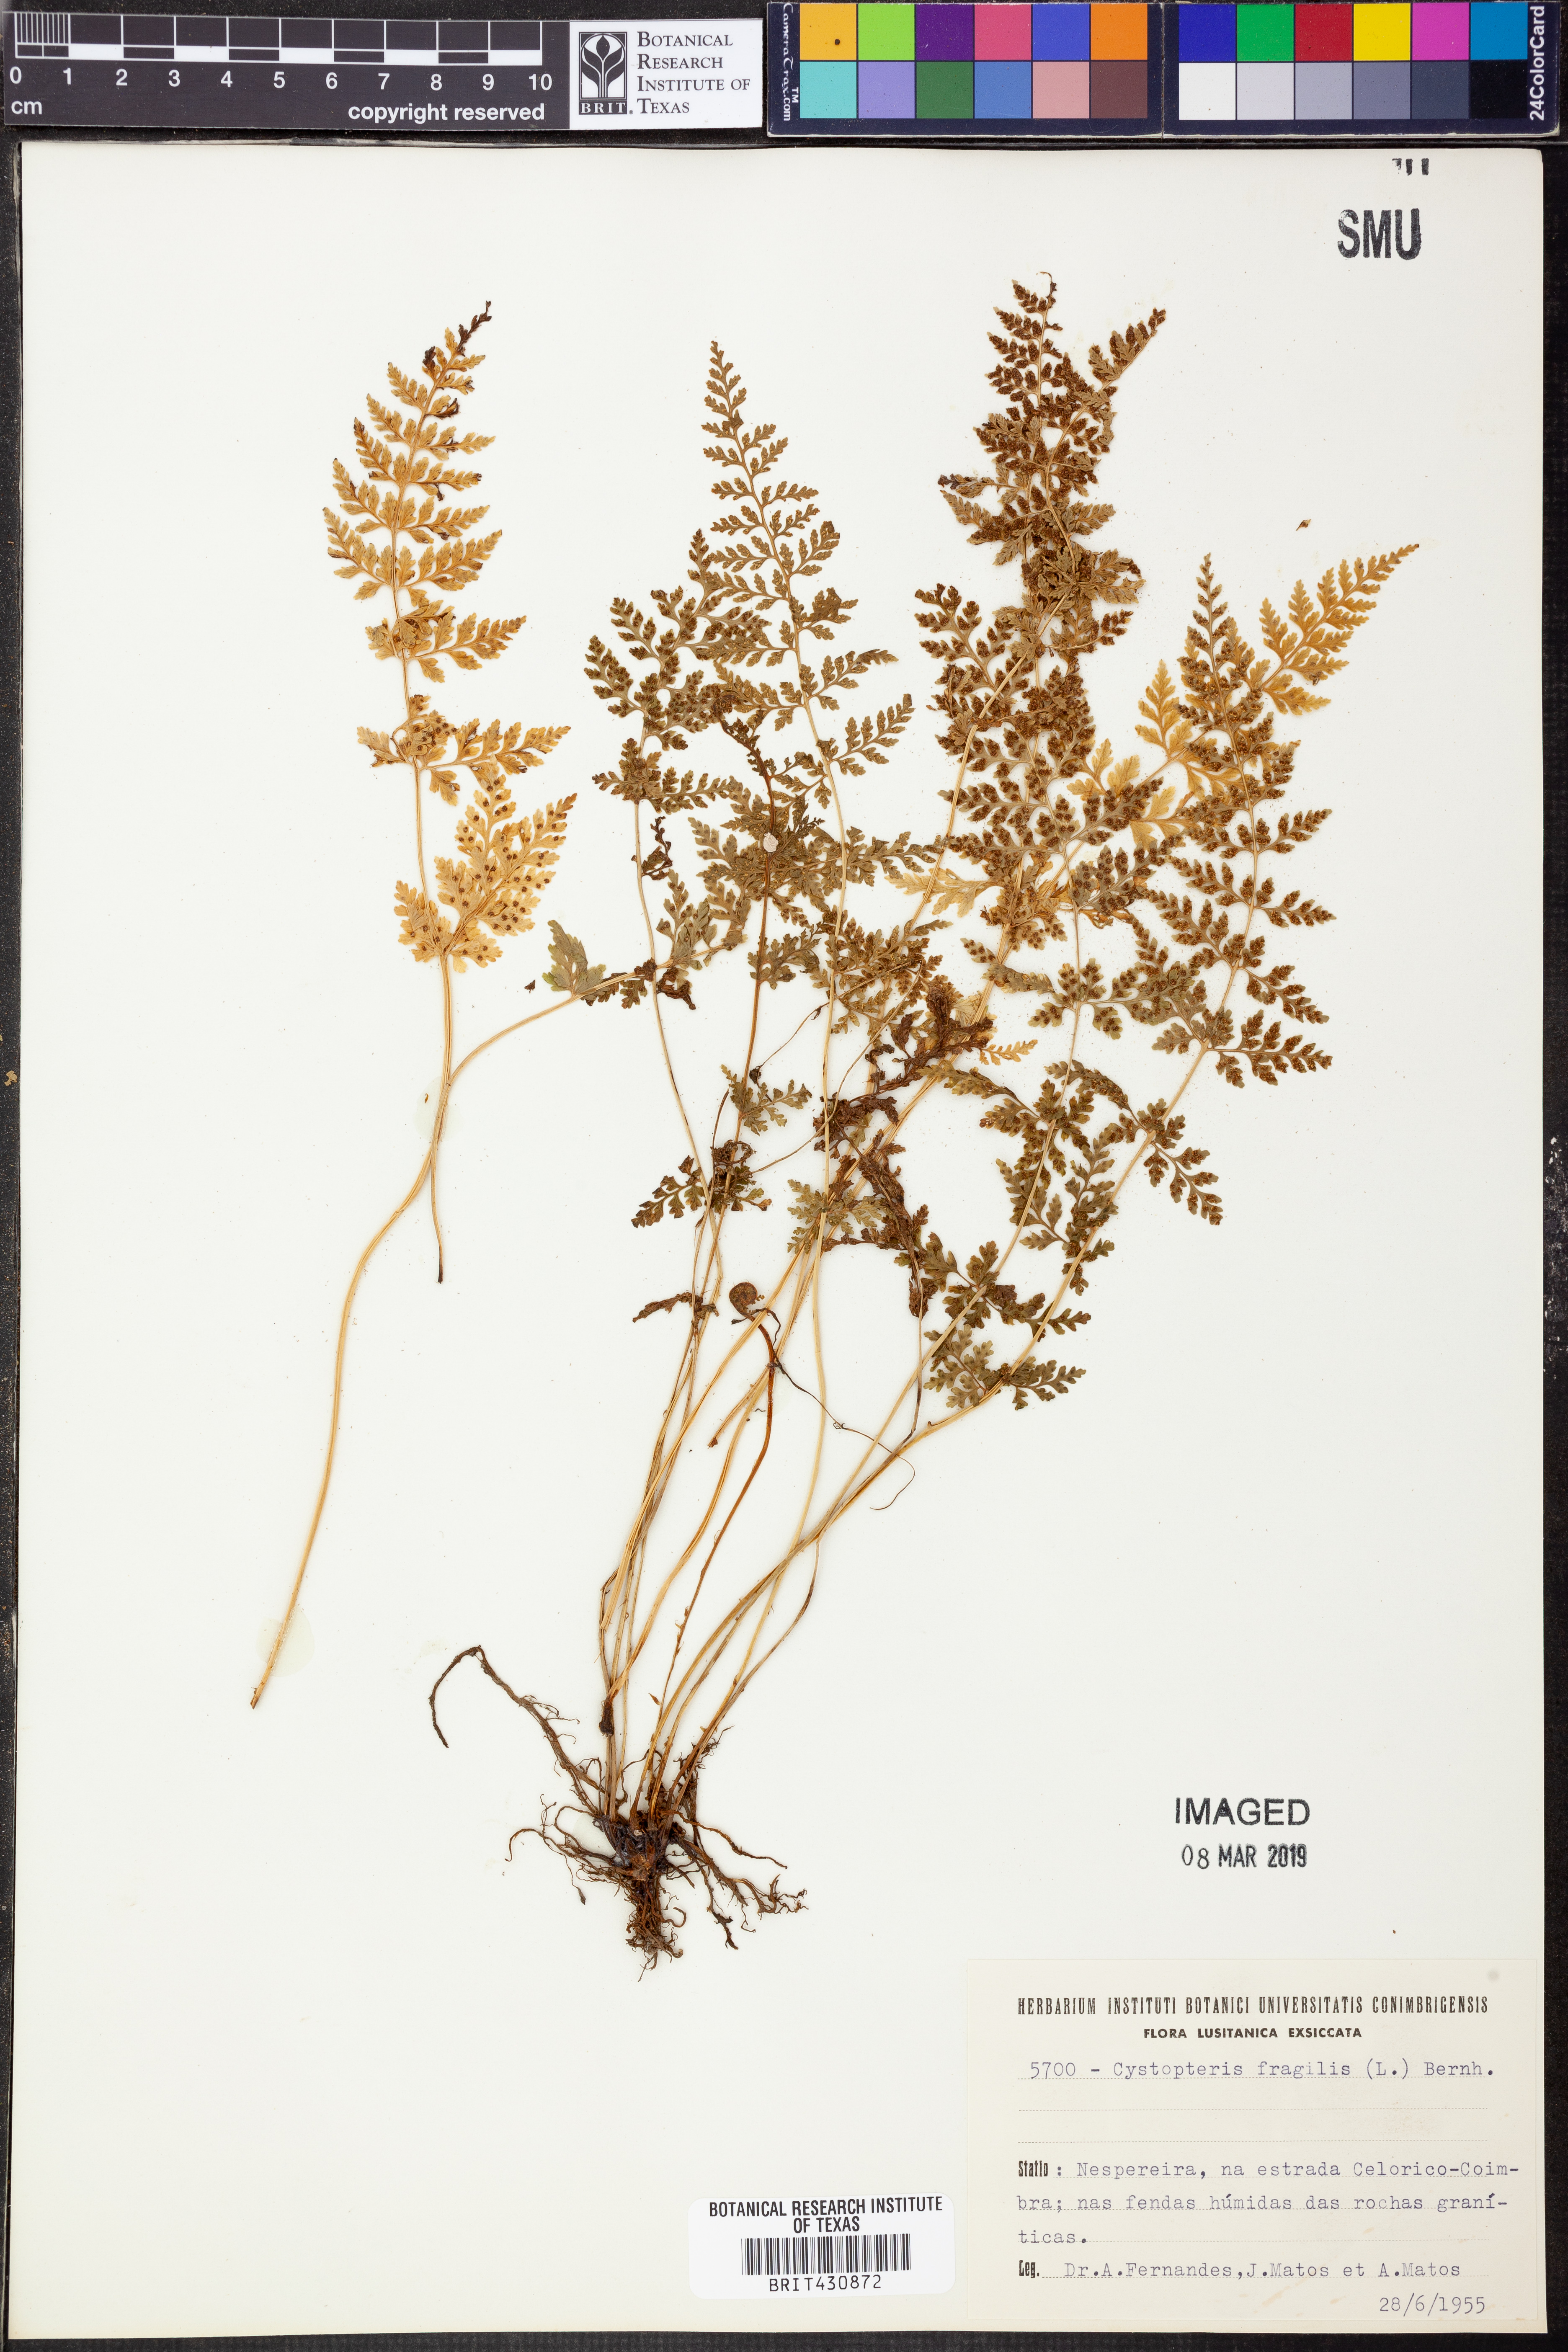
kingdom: Plantae
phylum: Tracheophyta
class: Polypodiopsida
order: Polypodiales
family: Cystopteridaceae
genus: Cystopteris
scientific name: Cystopteris fragilis
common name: Brittle bladder fern
